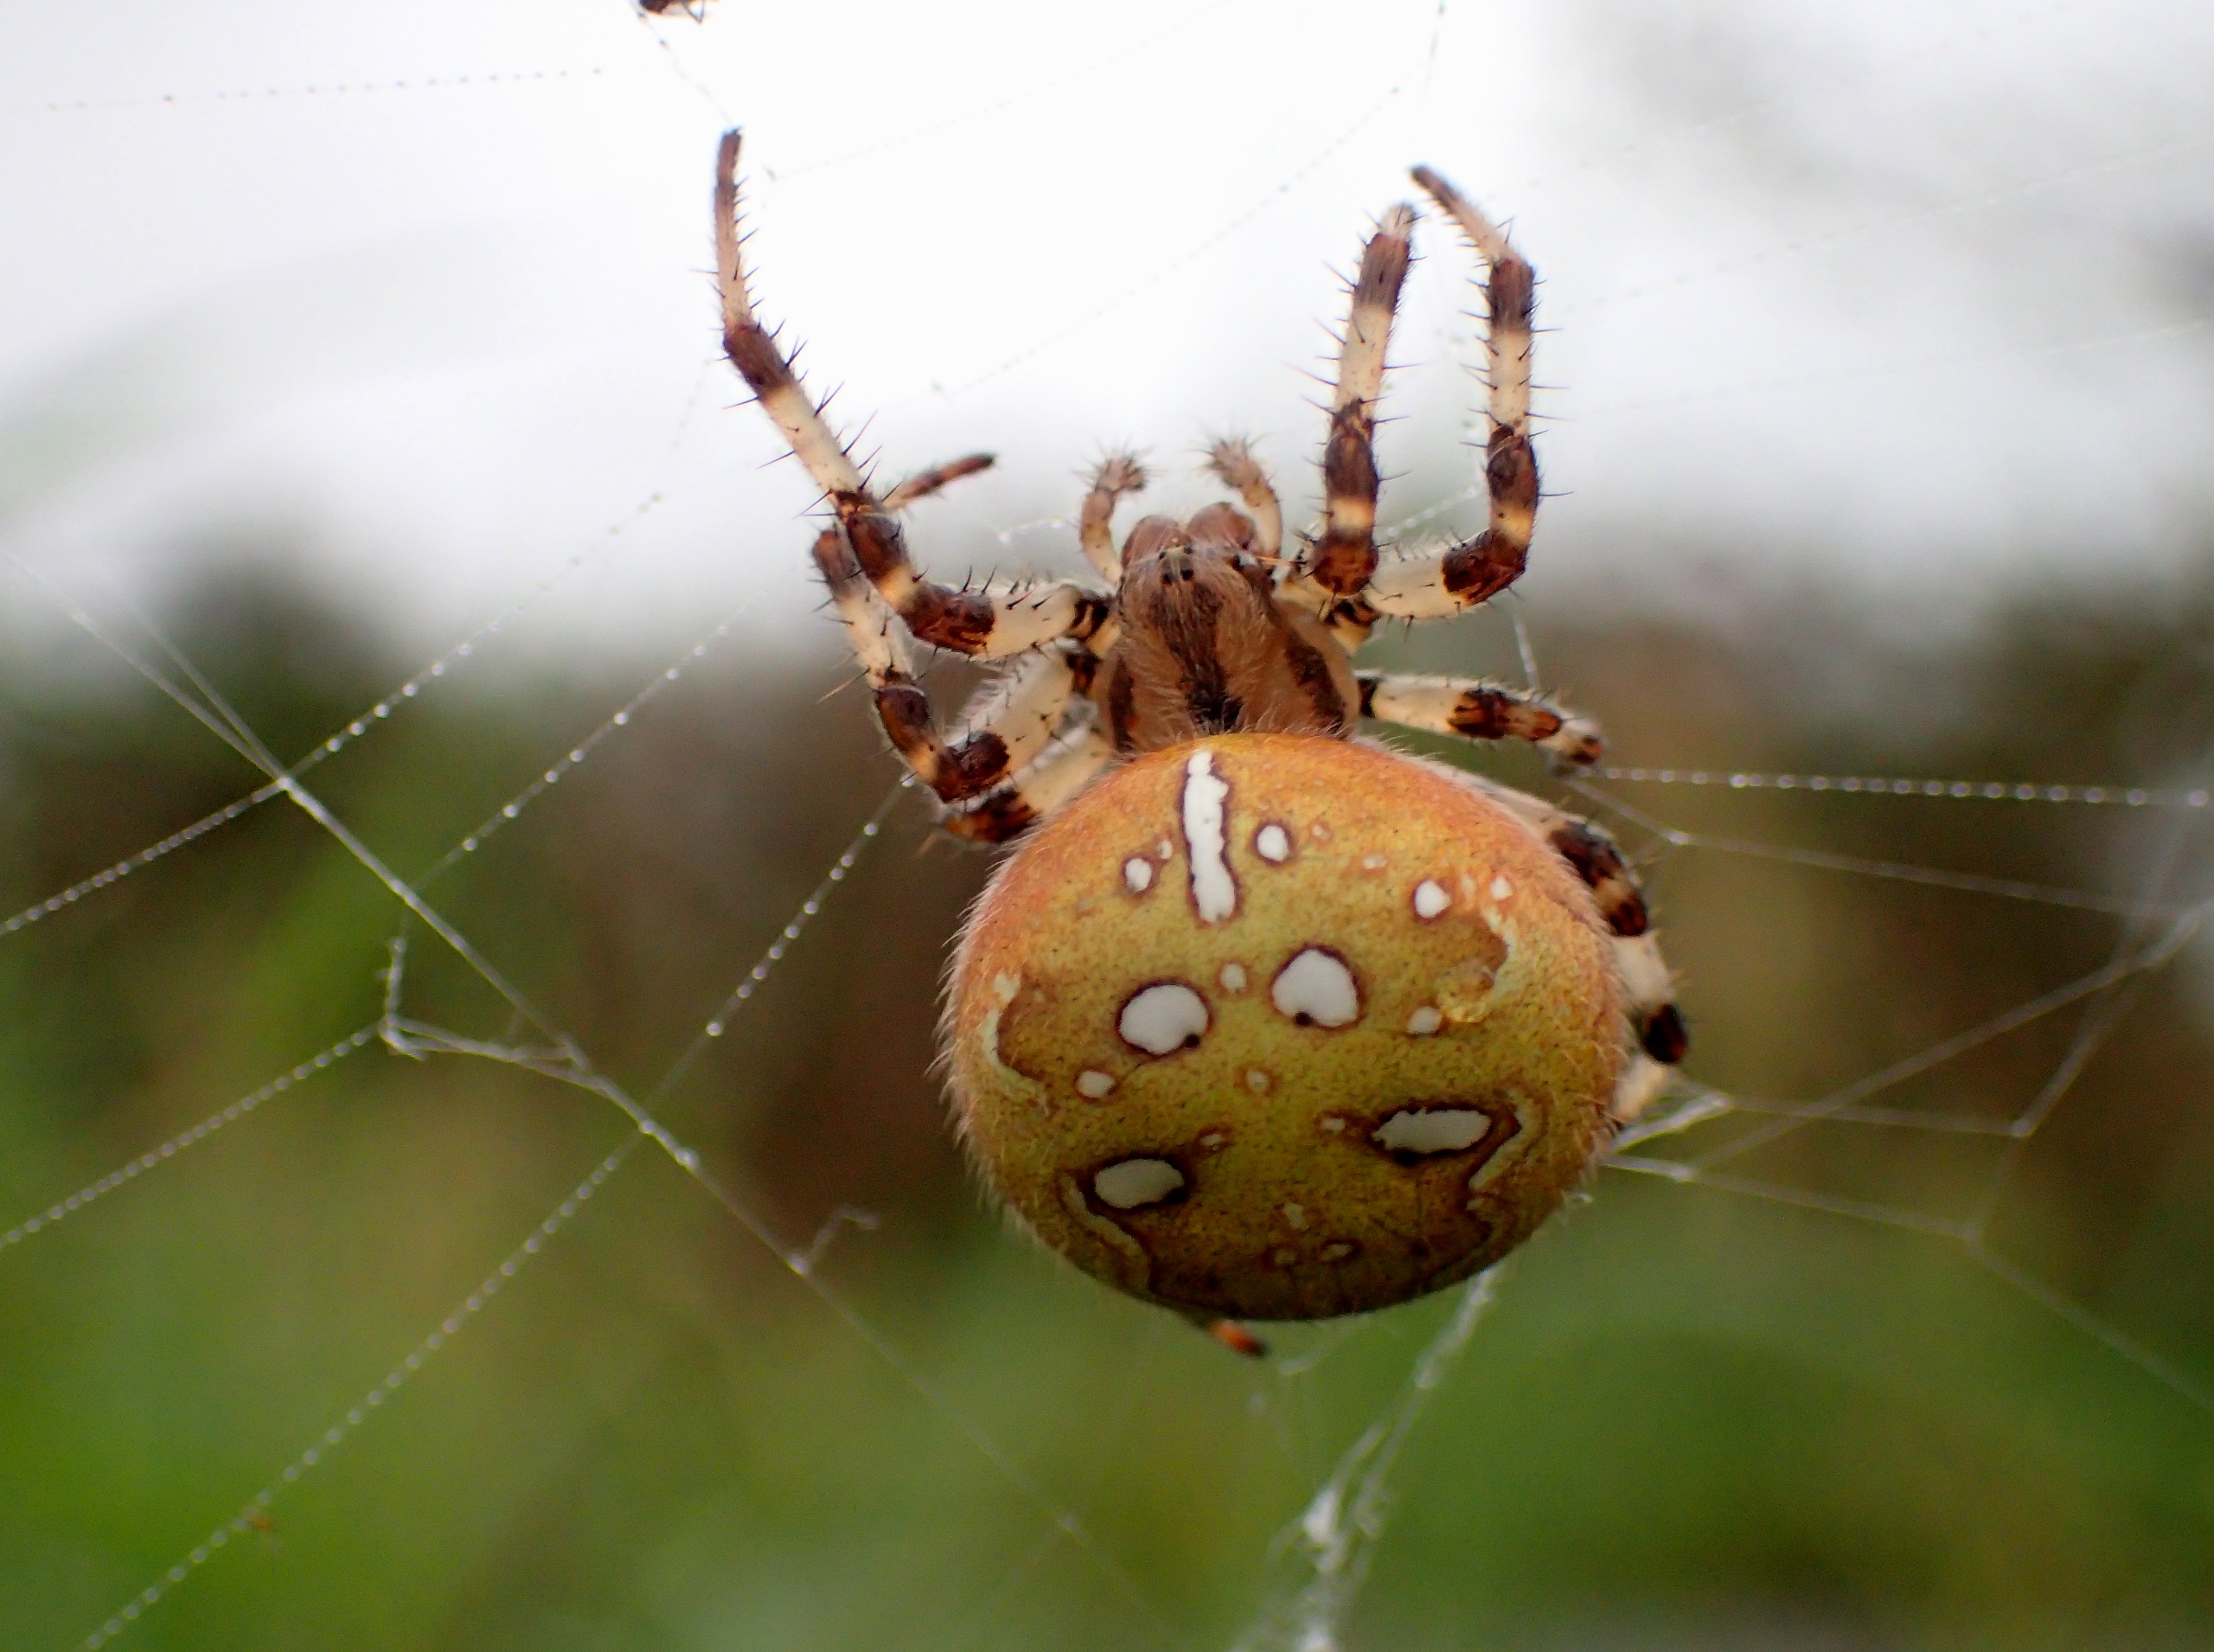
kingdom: Animalia
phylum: Arthropoda
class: Arachnida
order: Araneae
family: Araneidae
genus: Araneus
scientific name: Araneus quadratus
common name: Kvadratedderkop
